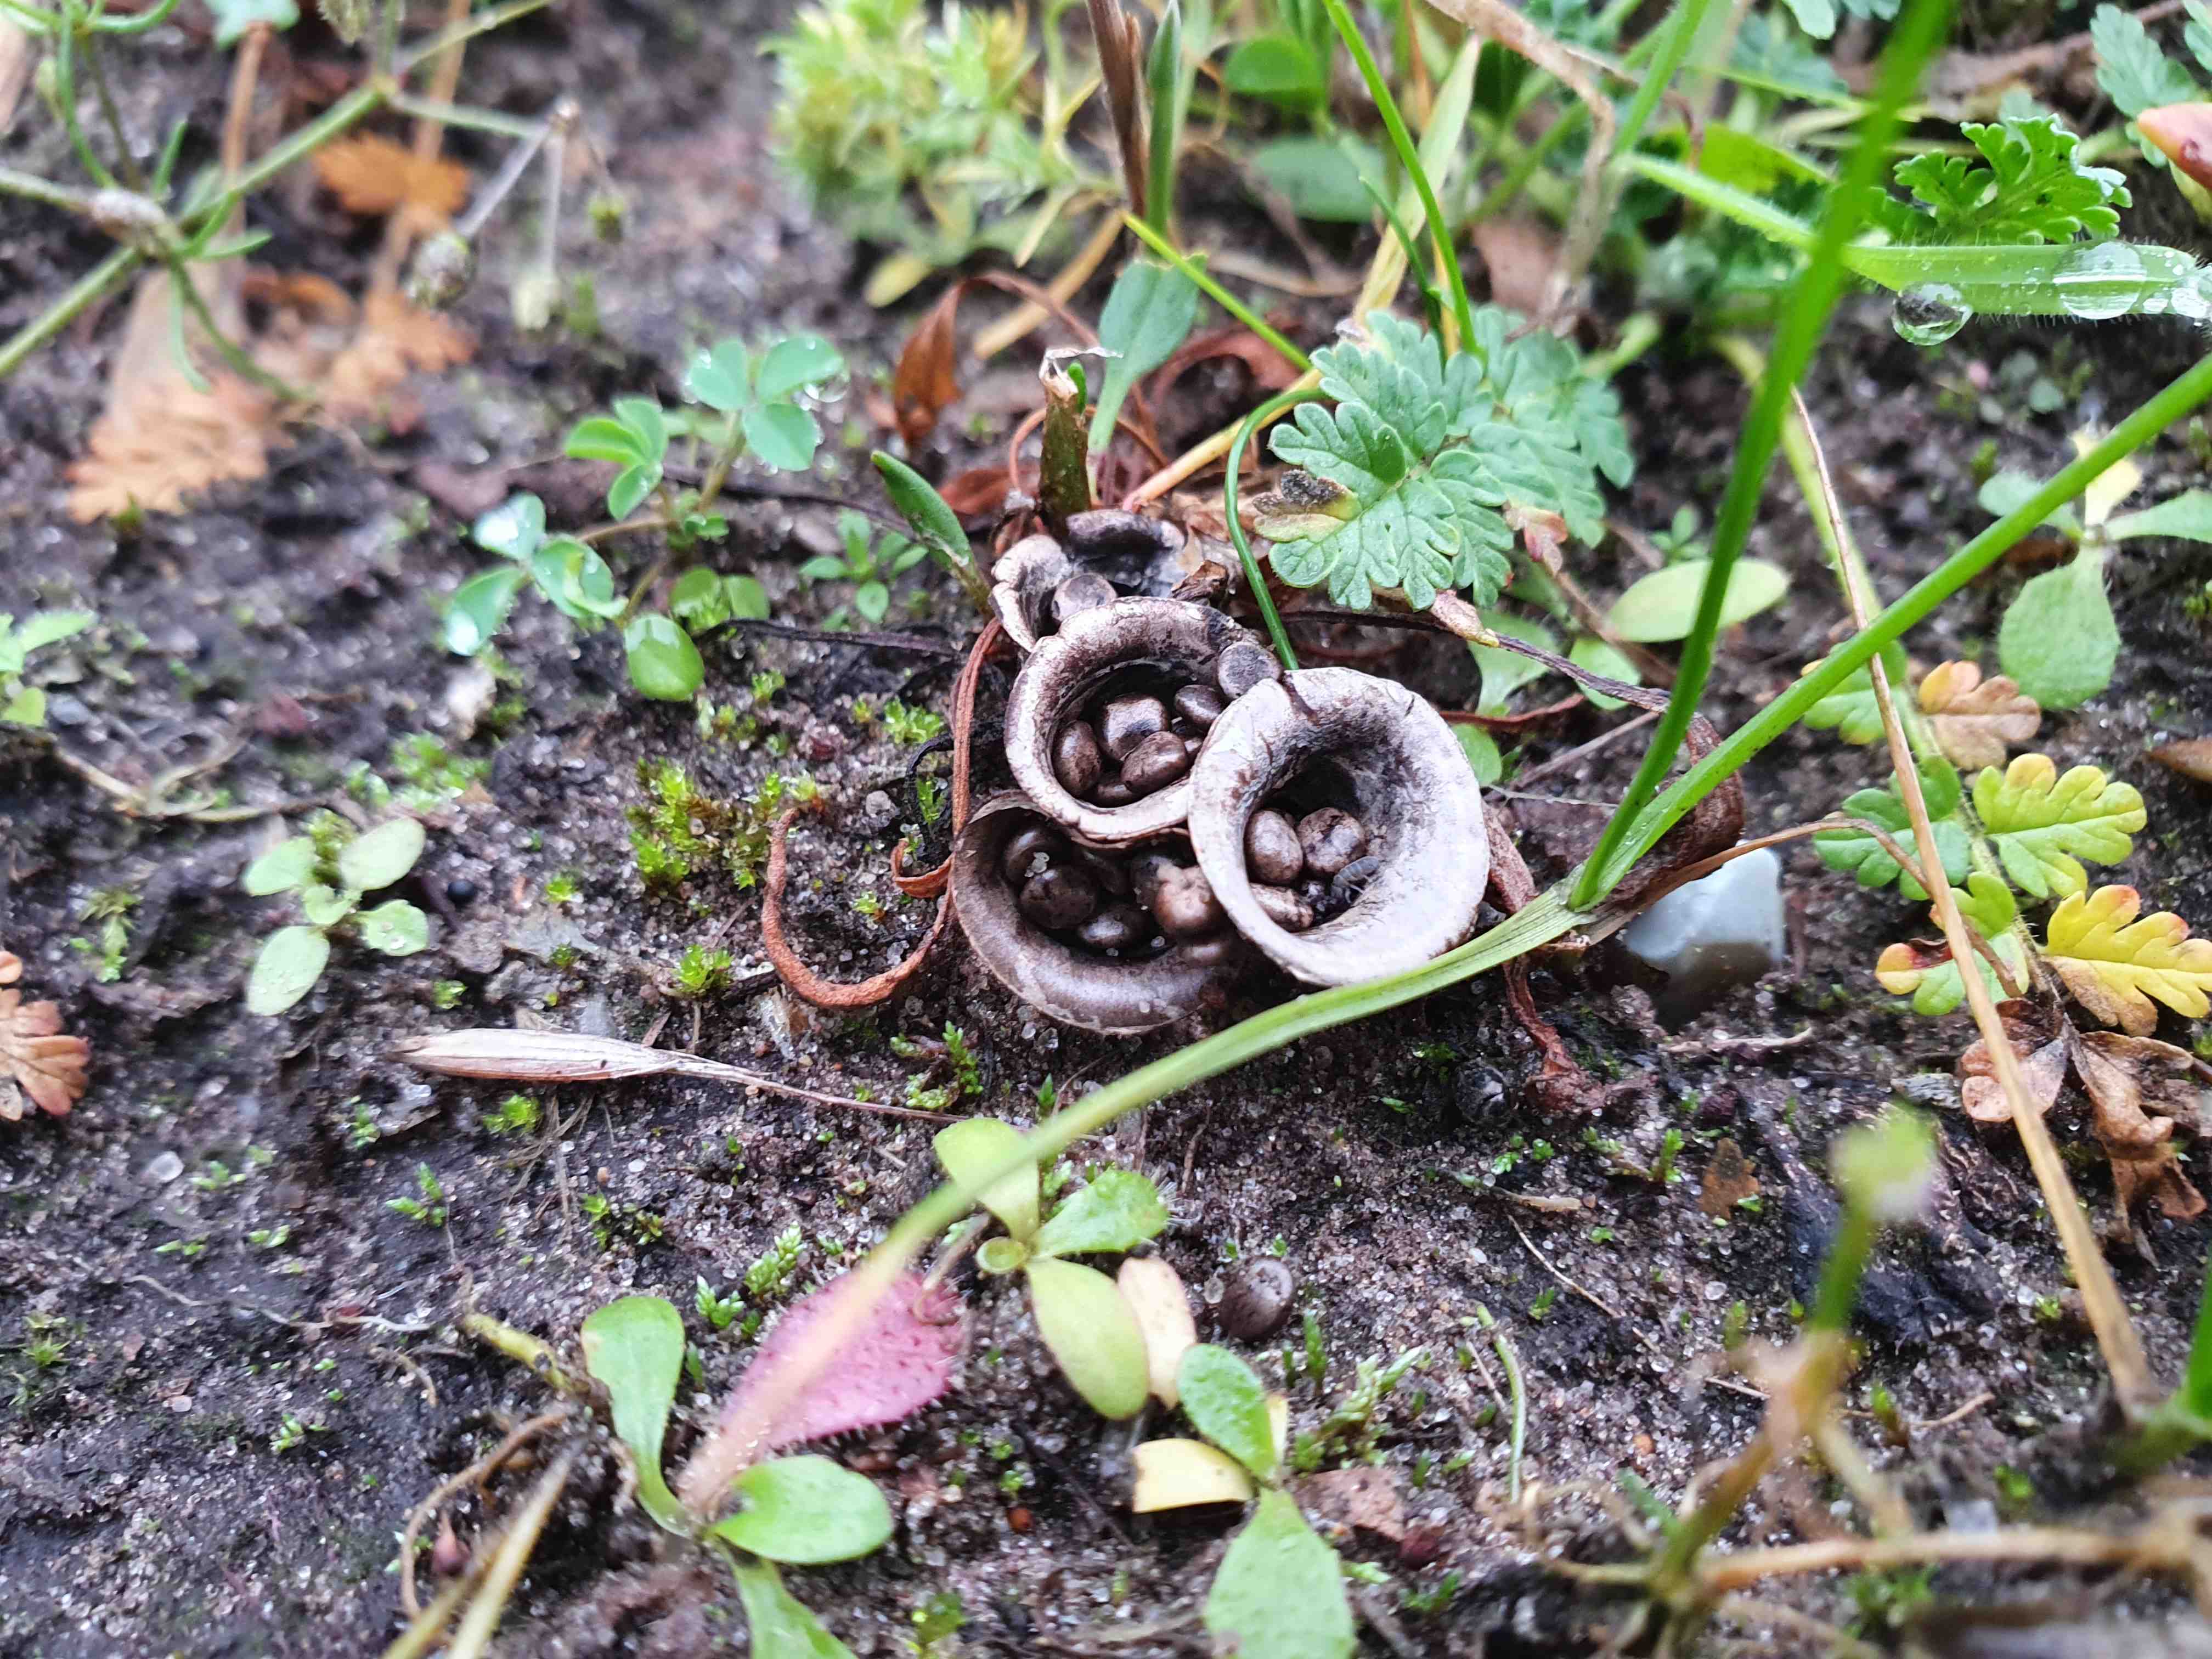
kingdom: Fungi
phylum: Basidiomycota
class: Agaricomycetes
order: Agaricales
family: Agaricaceae
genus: Cyathus
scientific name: Cyathus olla
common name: klokke-redesvamp
